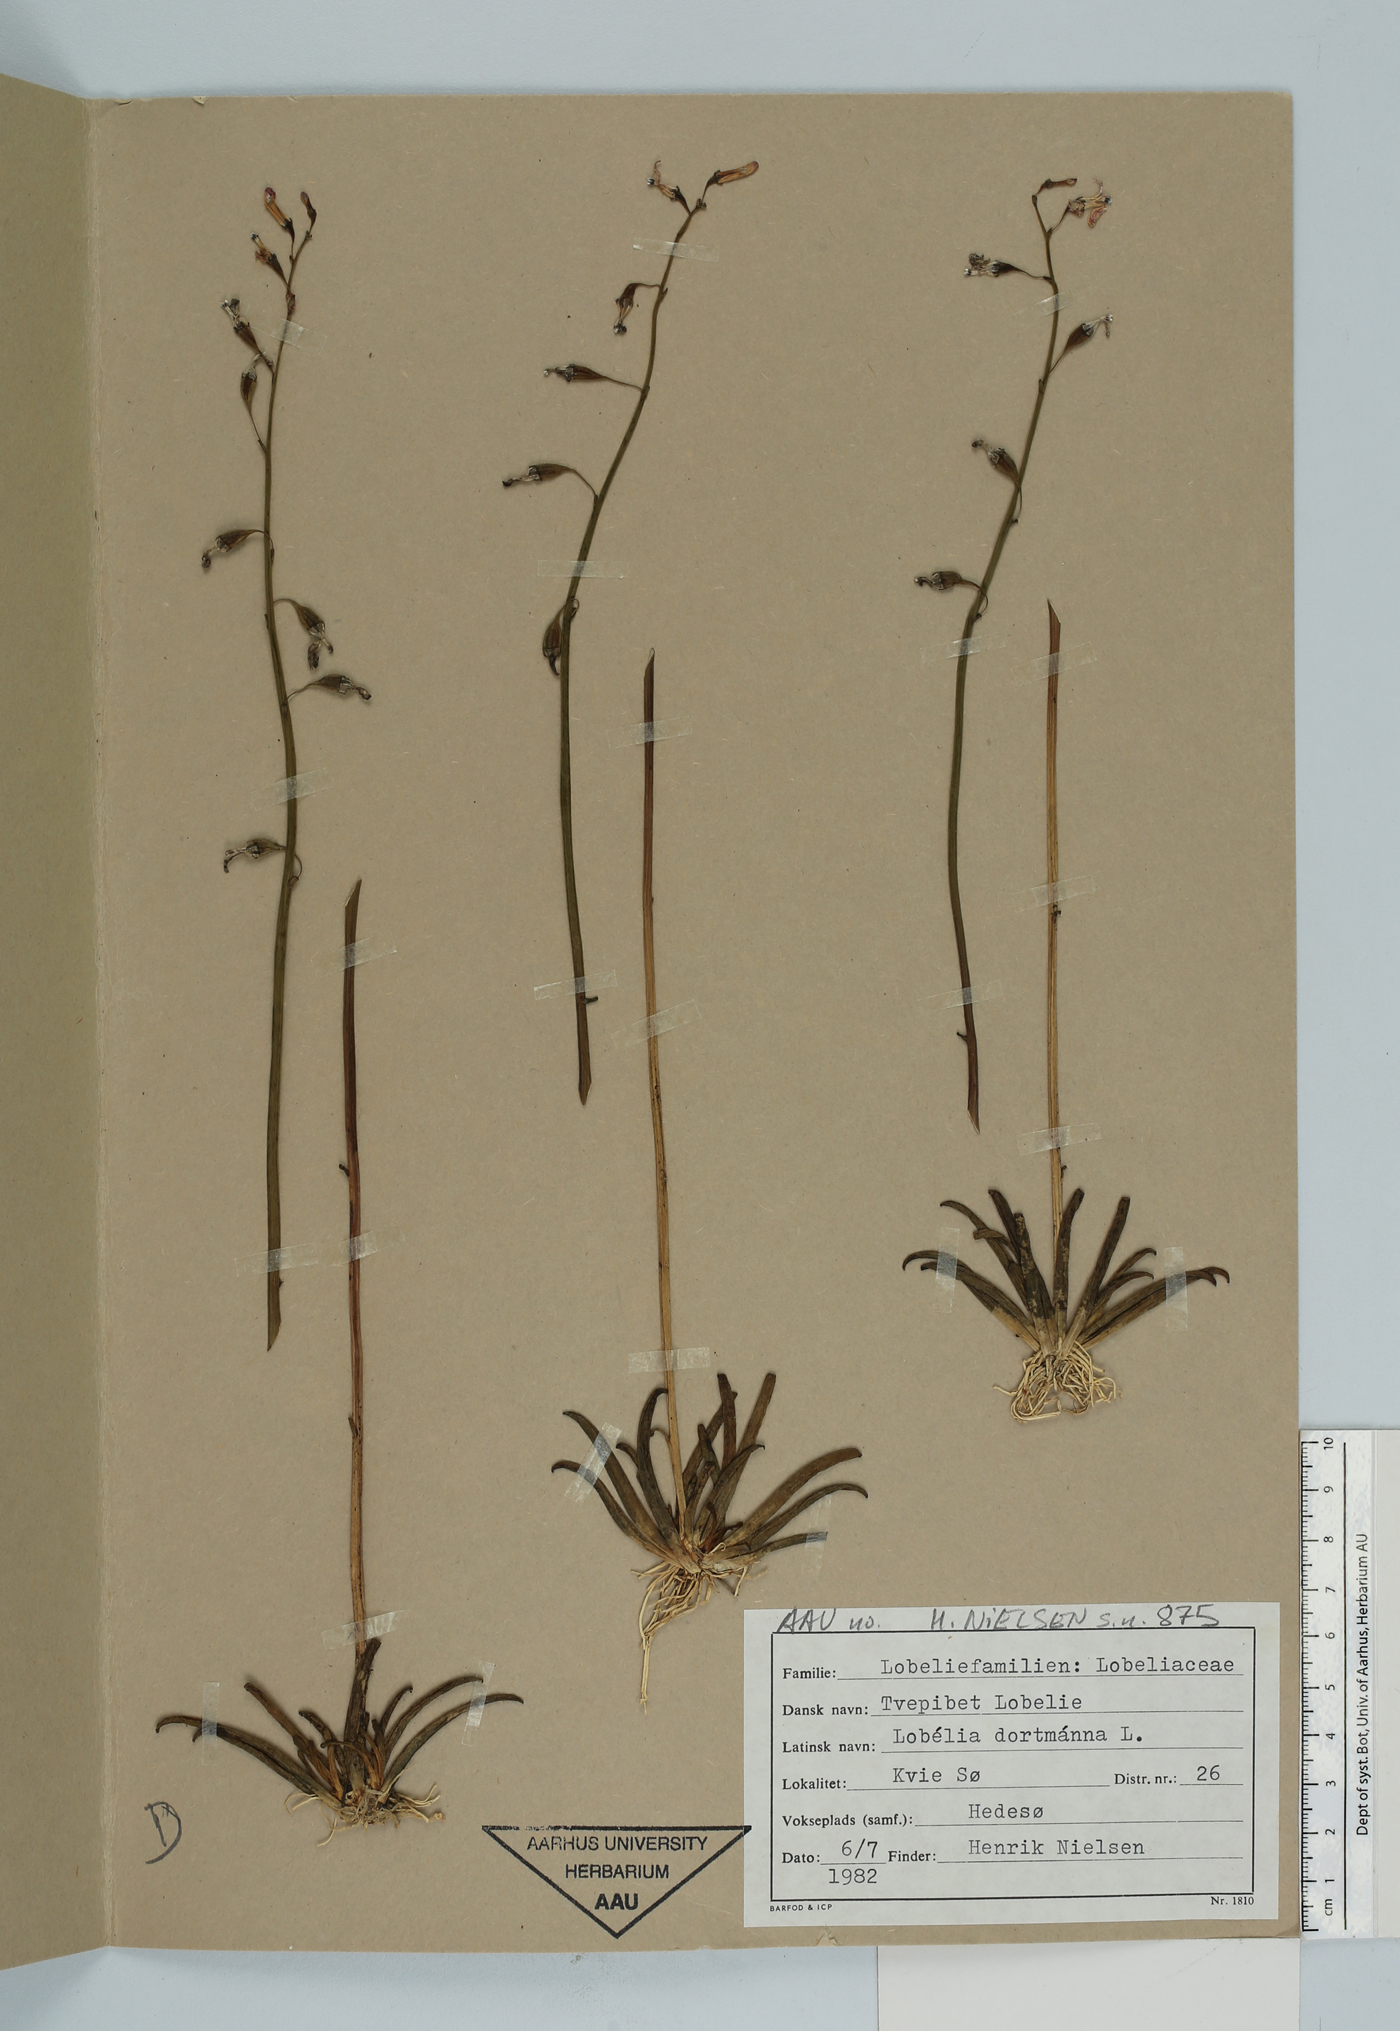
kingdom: Plantae
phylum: Tracheophyta
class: Magnoliopsida
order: Asterales
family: Campanulaceae
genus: Lobelia
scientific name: Lobelia dortmanna
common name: Water lobelia
